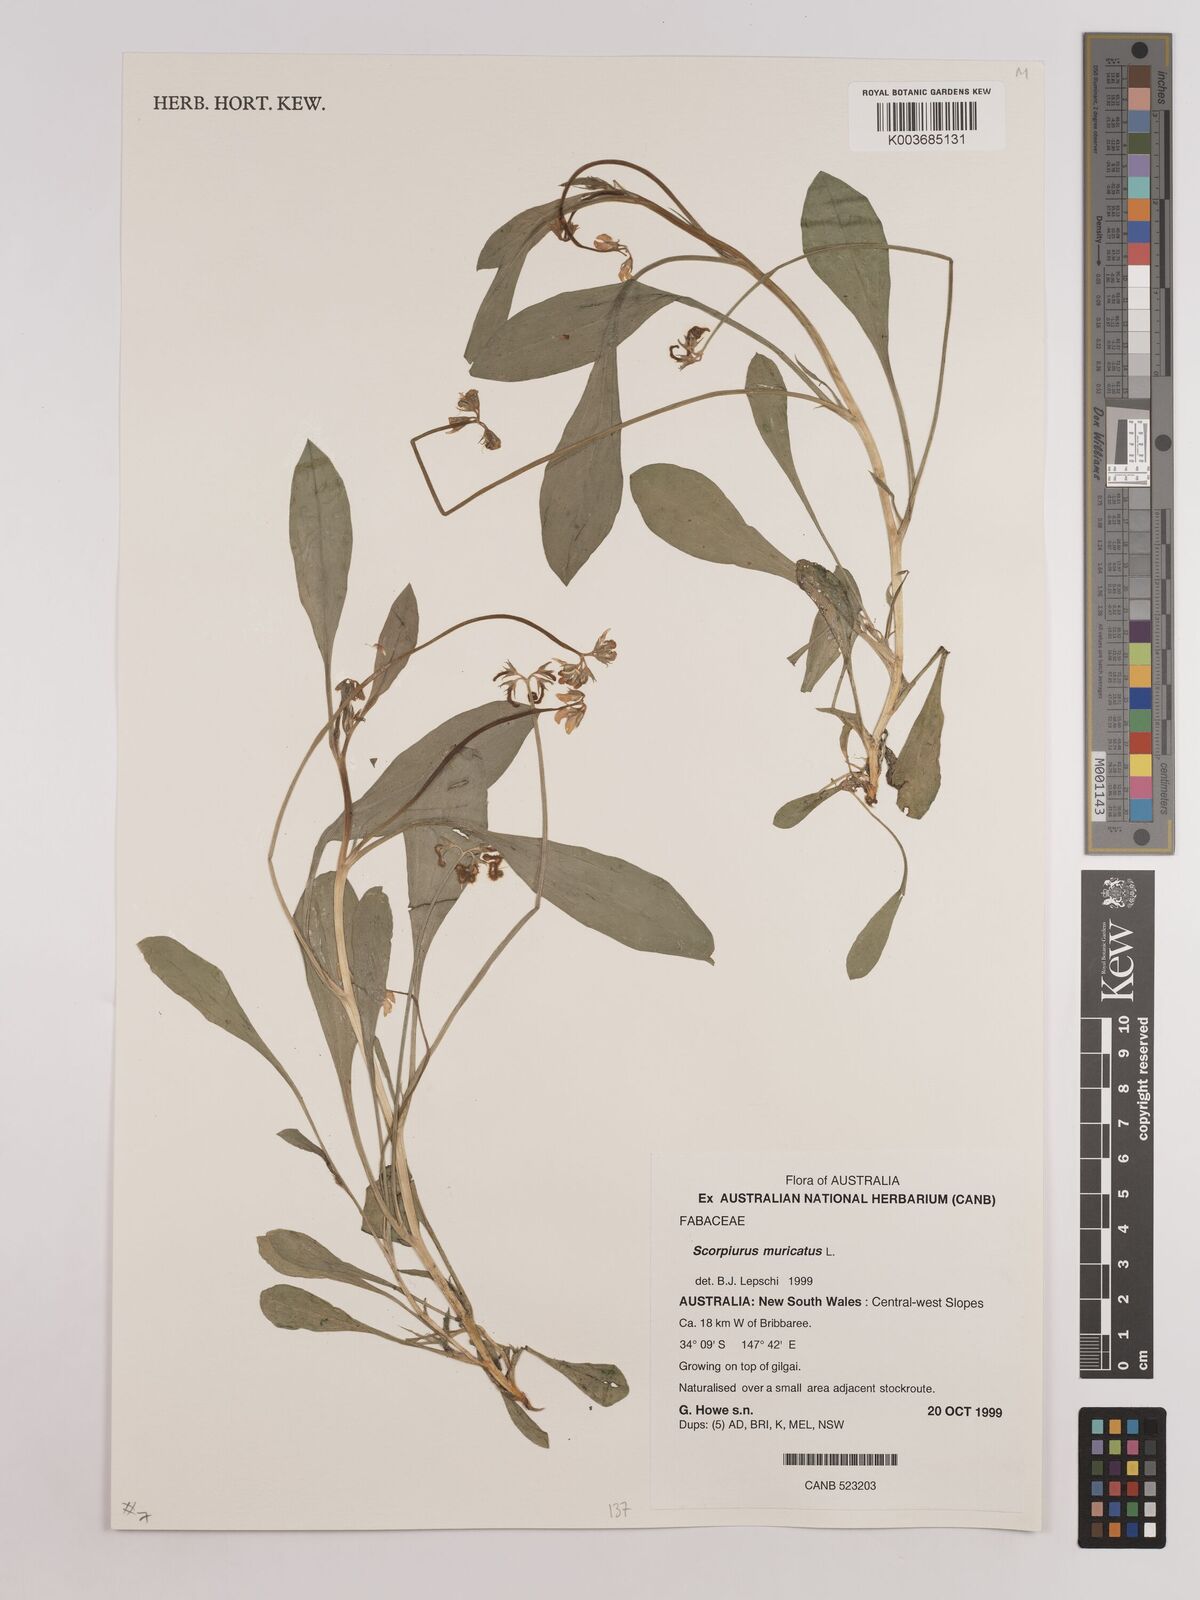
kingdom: Plantae
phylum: Tracheophyta
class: Magnoliopsida
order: Fabales
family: Fabaceae
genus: Scorpiurus
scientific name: Scorpiurus muricatus
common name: Caterpillar-plant
